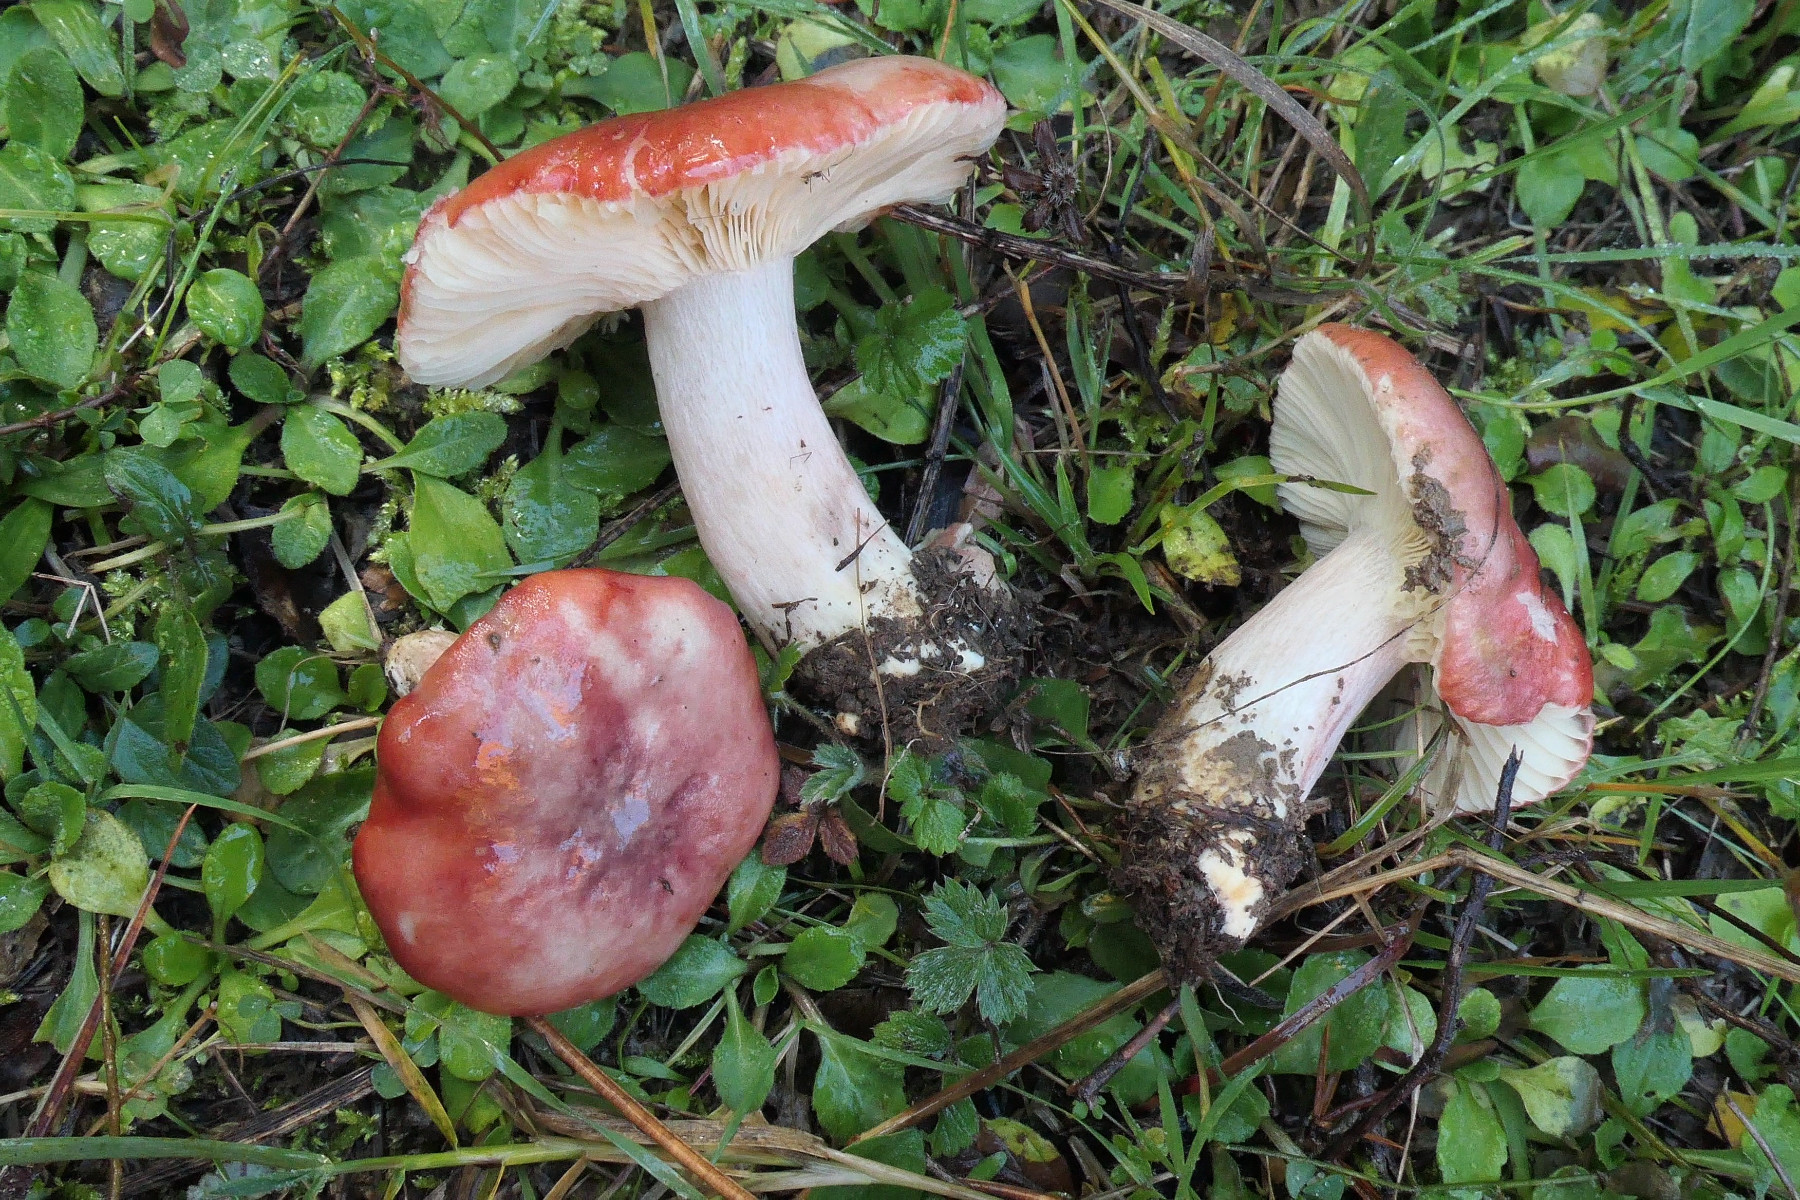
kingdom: Fungi
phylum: Basidiomycota
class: Agaricomycetes
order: Russulales
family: Russulaceae
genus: Russula
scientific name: Russula torulosa
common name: sand-skørhat
